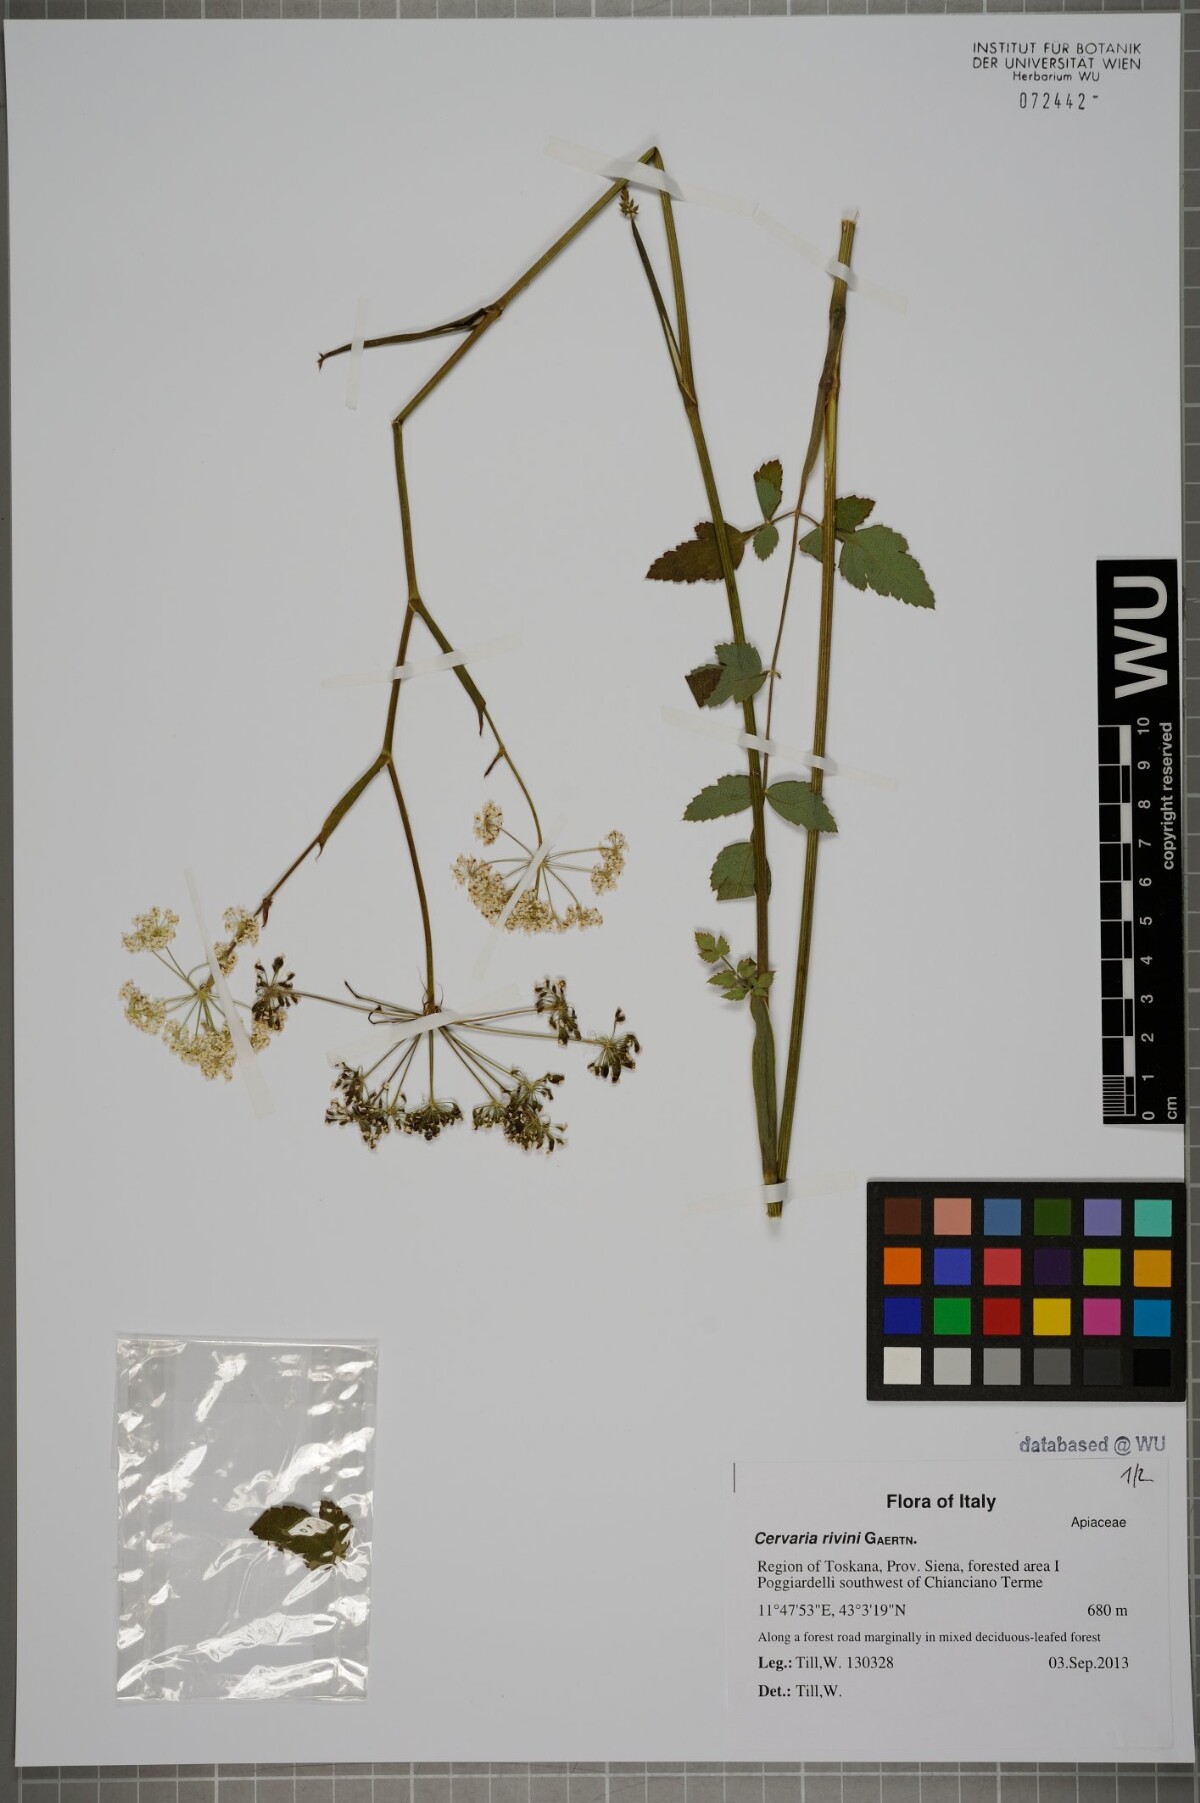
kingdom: Plantae
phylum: Tracheophyta
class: Magnoliopsida
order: Apiales
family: Apiaceae
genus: Cervaria
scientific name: Cervaria rivini
